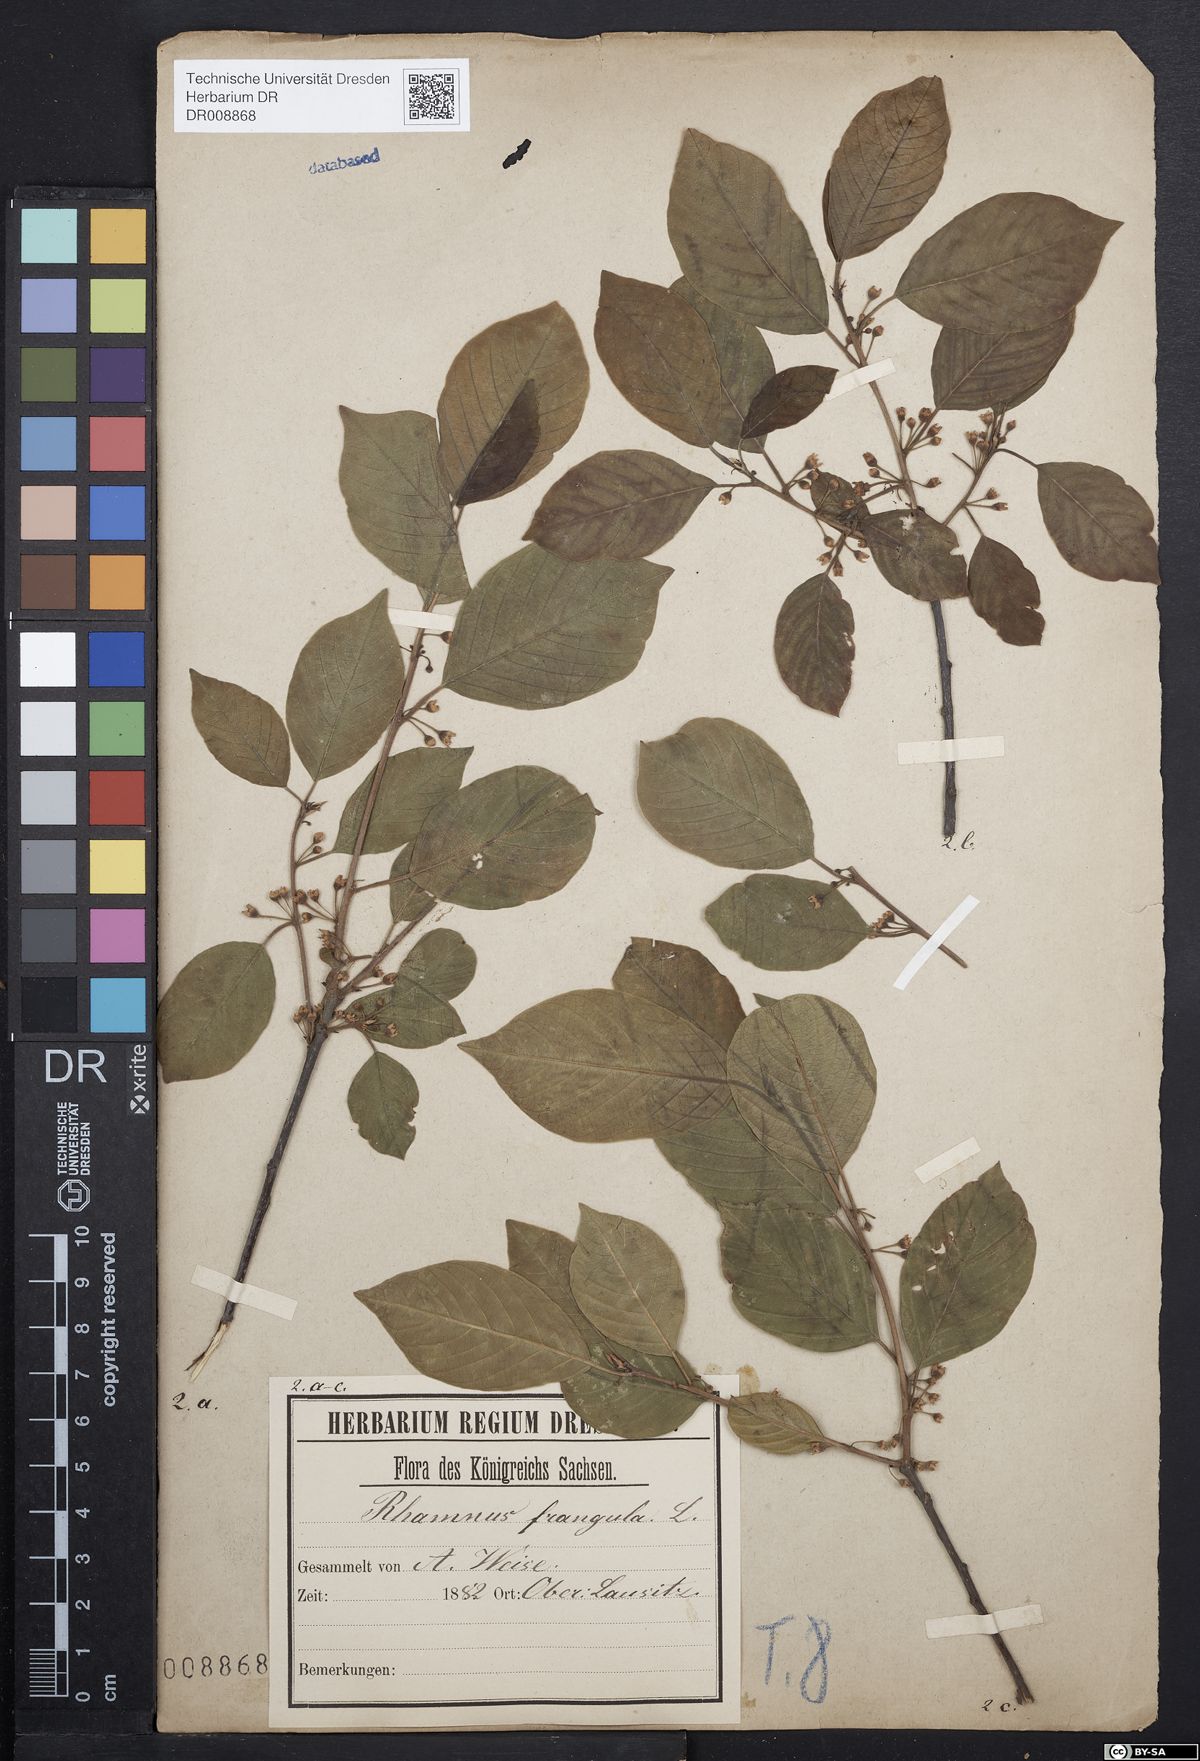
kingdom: Plantae
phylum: Tracheophyta
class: Magnoliopsida
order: Rosales
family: Rhamnaceae
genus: Frangula
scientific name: Frangula alnus
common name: Alder buckthorn
